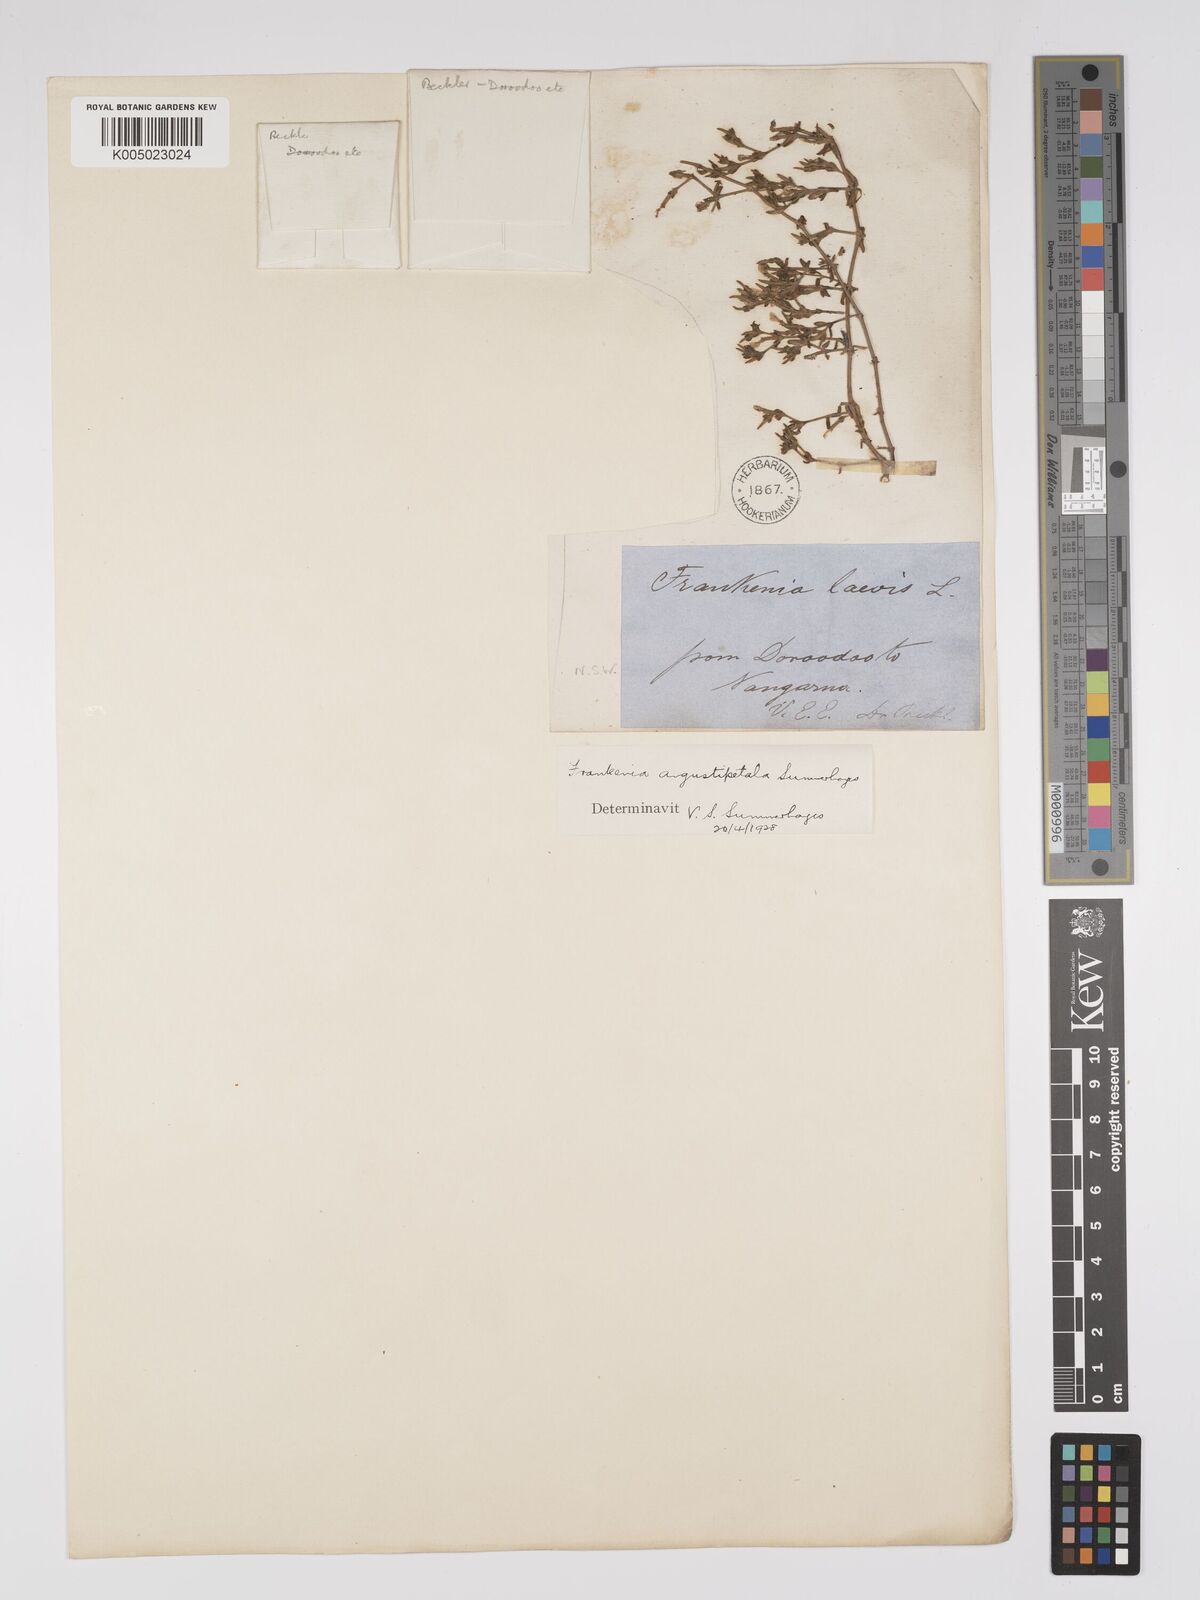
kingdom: Plantae
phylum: Tracheophyta
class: Magnoliopsida
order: Caryophyllales
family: Frankeniaceae
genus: Frankenia
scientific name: Frankenia angustipetala
